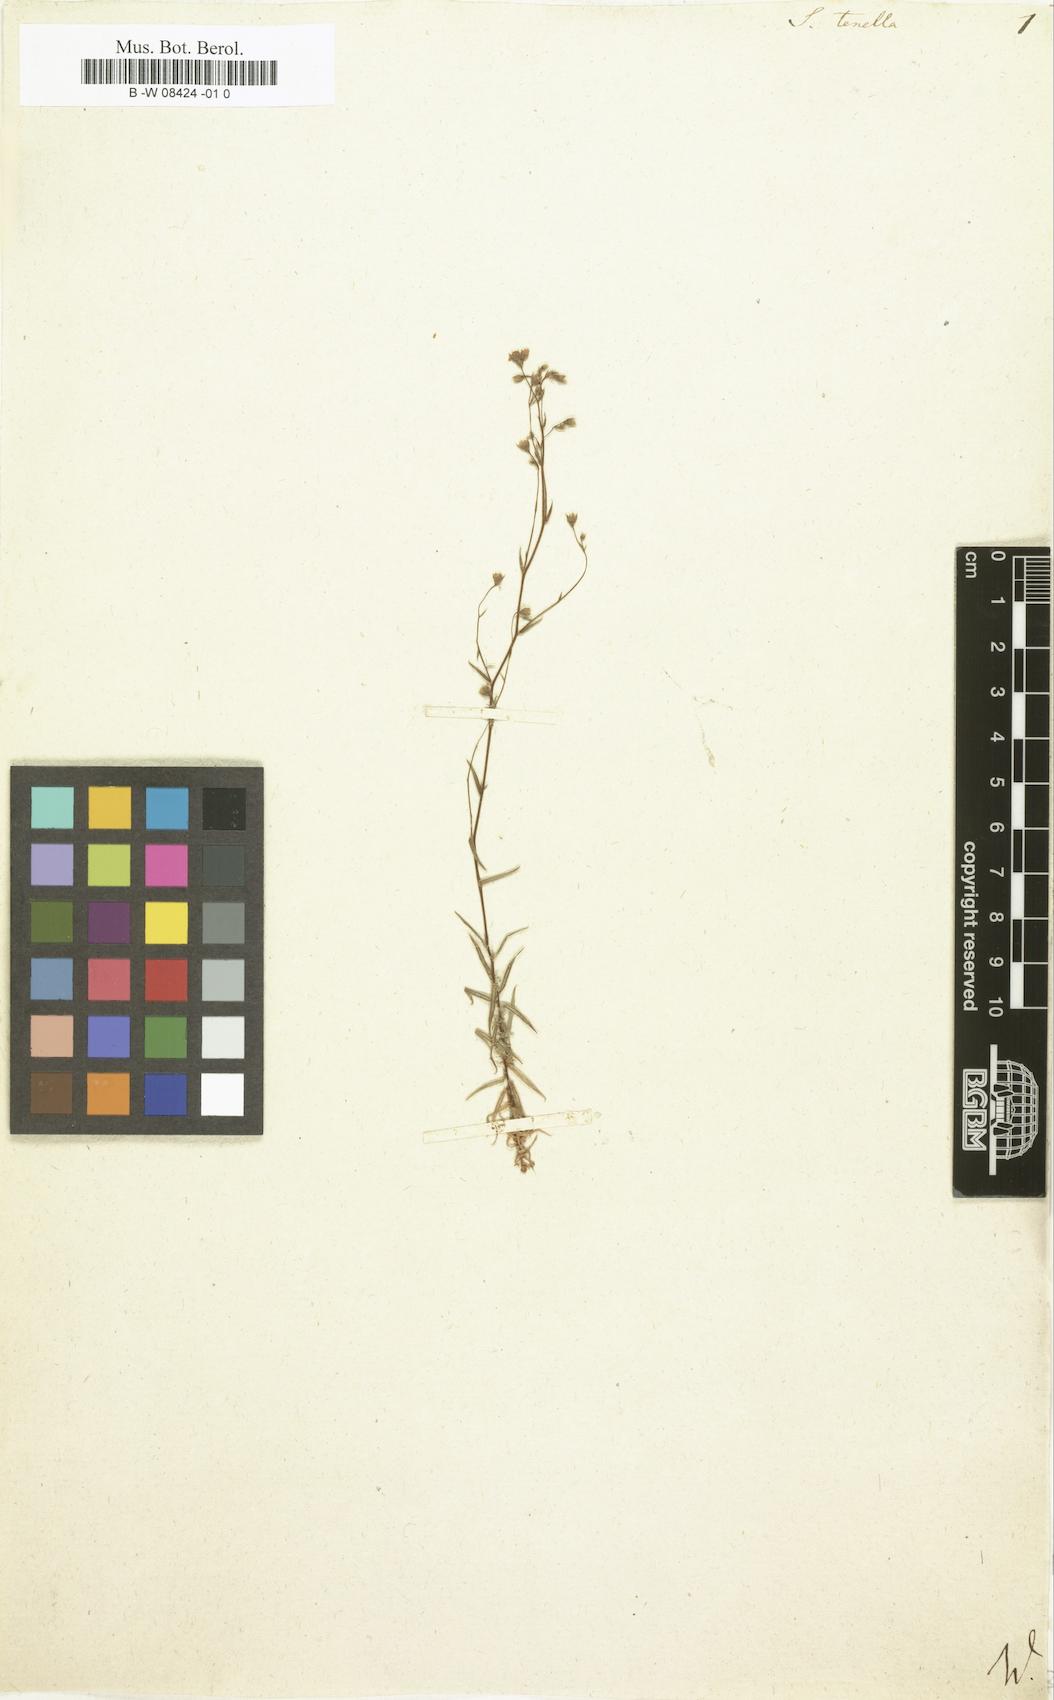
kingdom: Plantae
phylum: Tracheophyta
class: Magnoliopsida
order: Saxifragales
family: Saxifragaceae
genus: Saxifraga
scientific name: Saxifraga tenella
